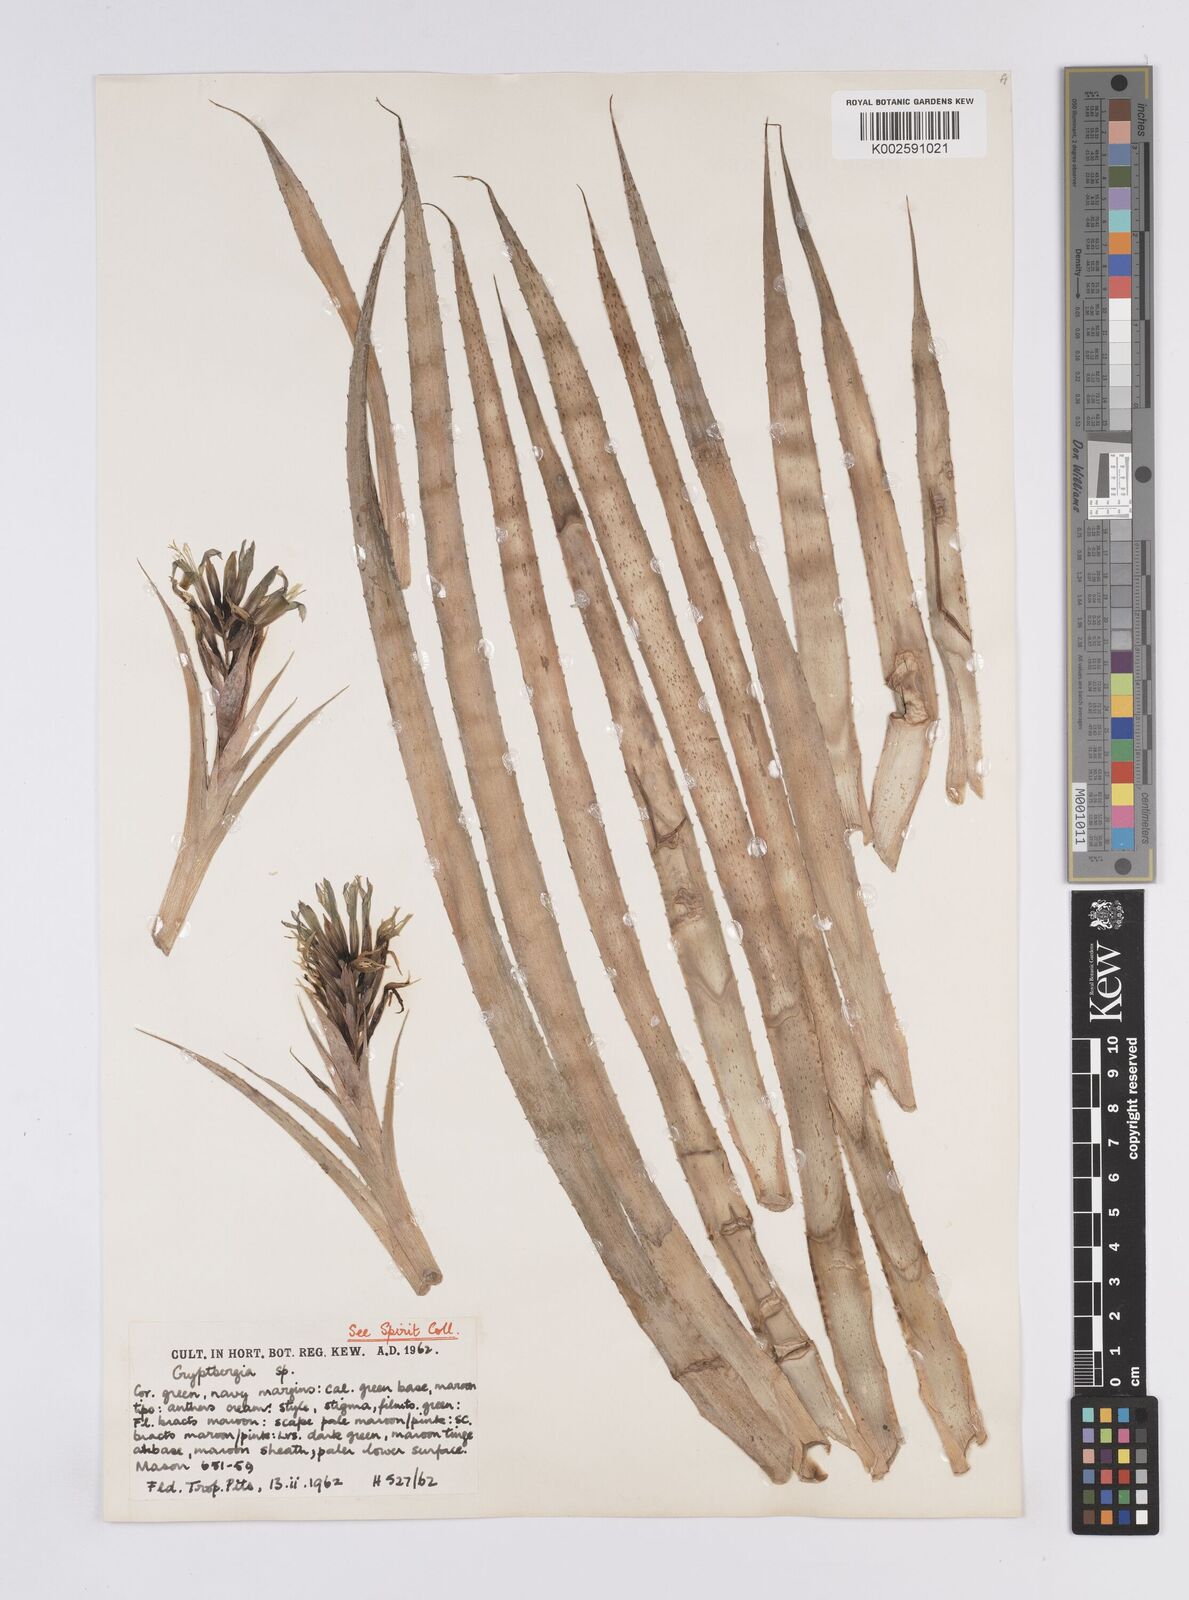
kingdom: Plantae
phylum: Tracheophyta
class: Liliopsida
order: Poales
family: Bromeliaceae
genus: Cryptanthus
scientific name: Cryptanthus
